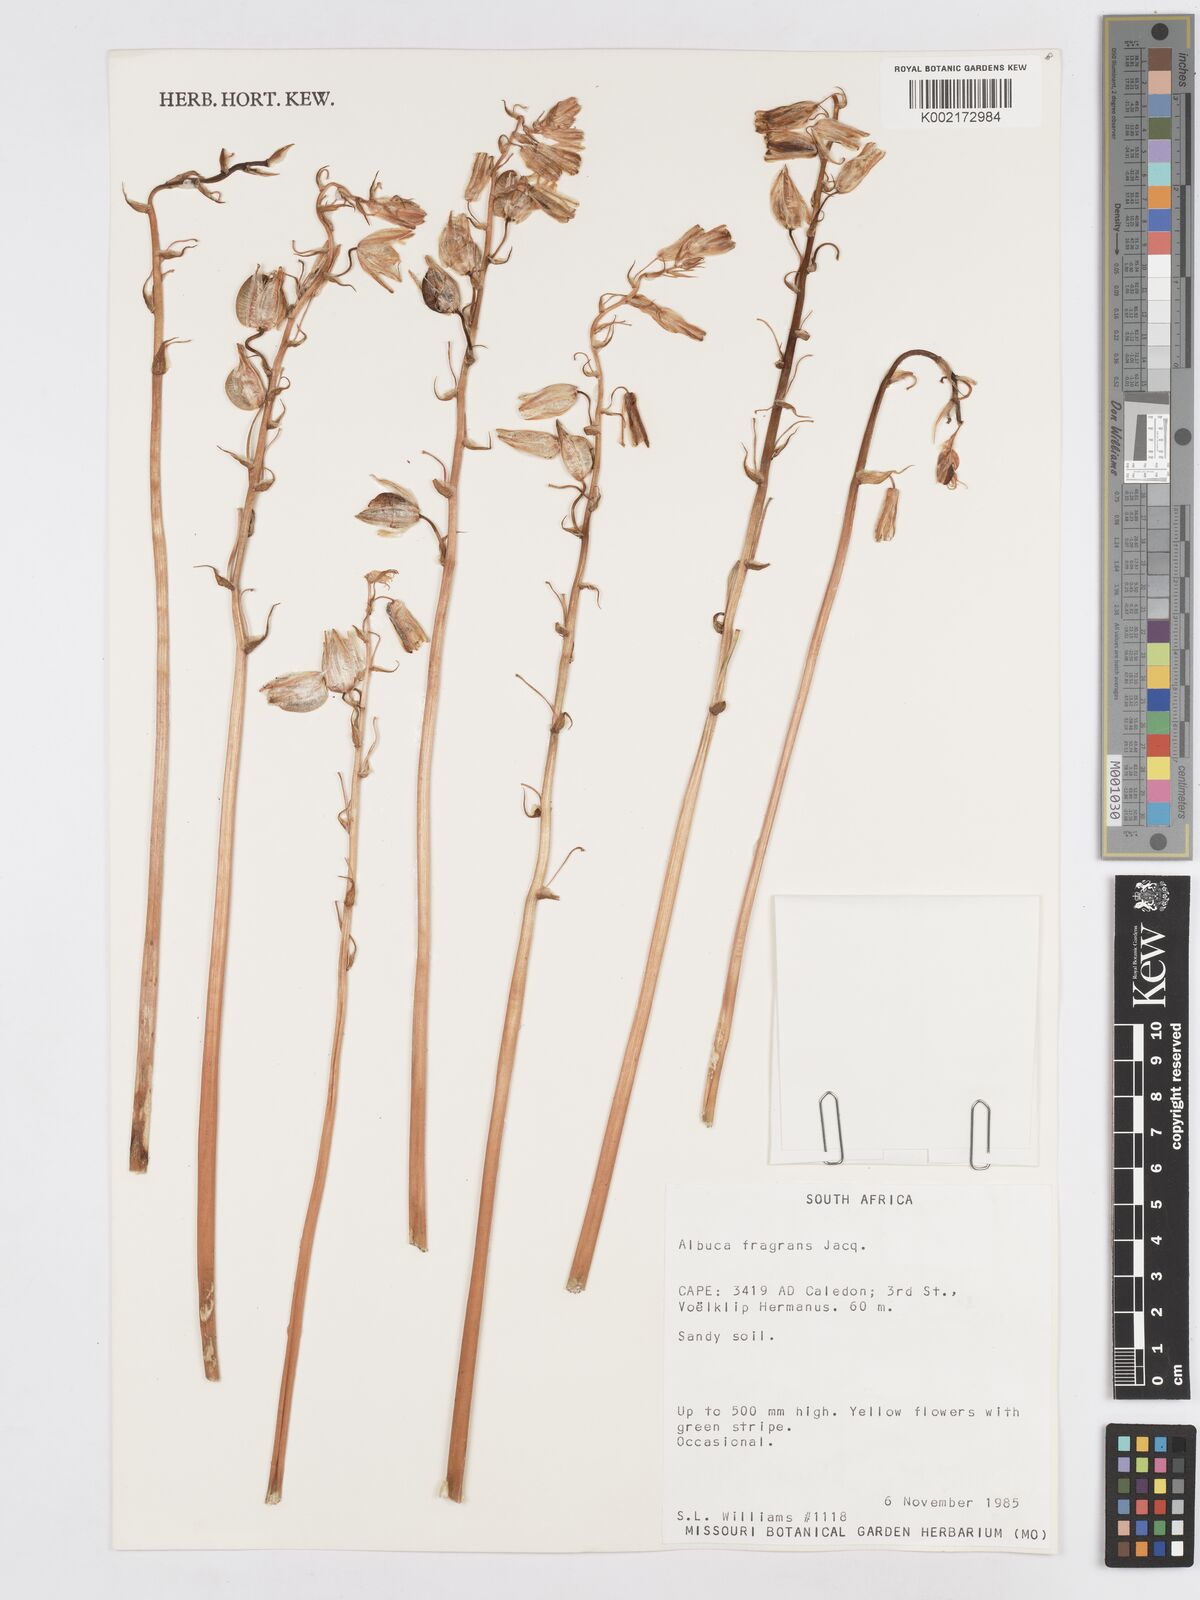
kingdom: Plantae
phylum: Tracheophyta
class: Liliopsida
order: Asparagales
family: Asparagaceae
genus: Albuca
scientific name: Albuca fragrans
